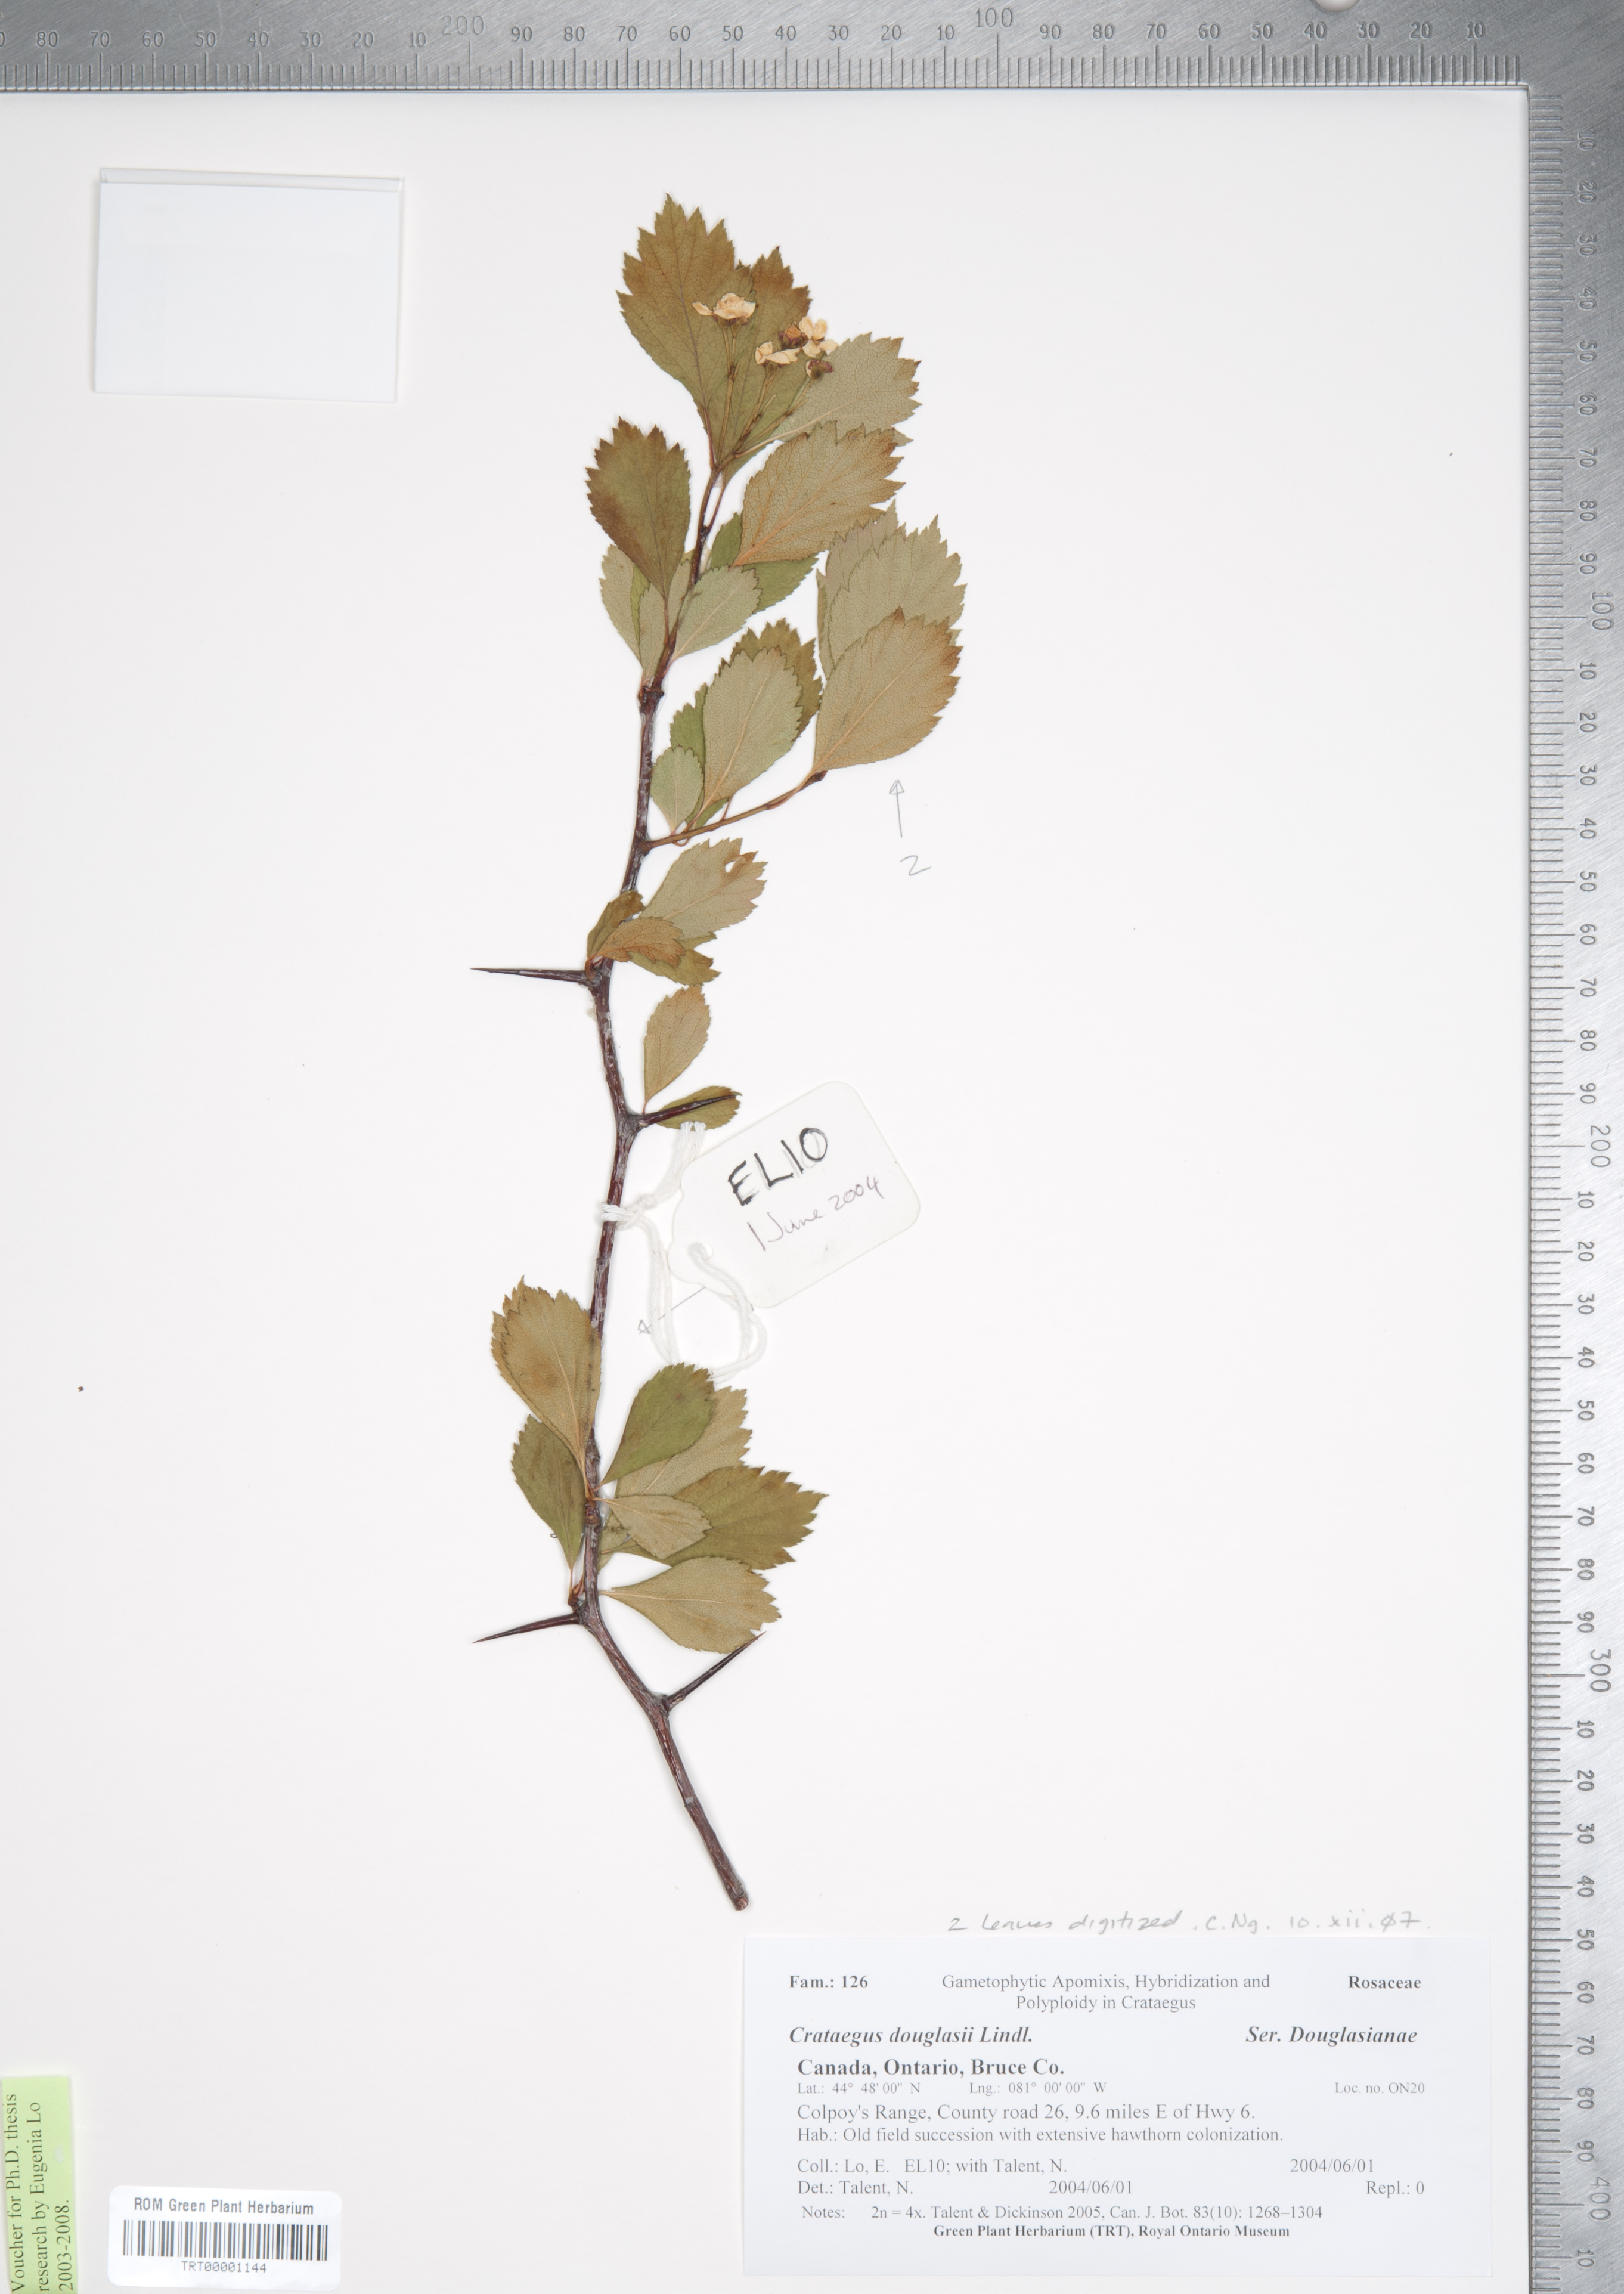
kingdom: Plantae
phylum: Tracheophyta
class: Magnoliopsida
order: Rosales
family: Rosaceae
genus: Crataegus
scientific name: Crataegus douglasii
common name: Black hawthorn
